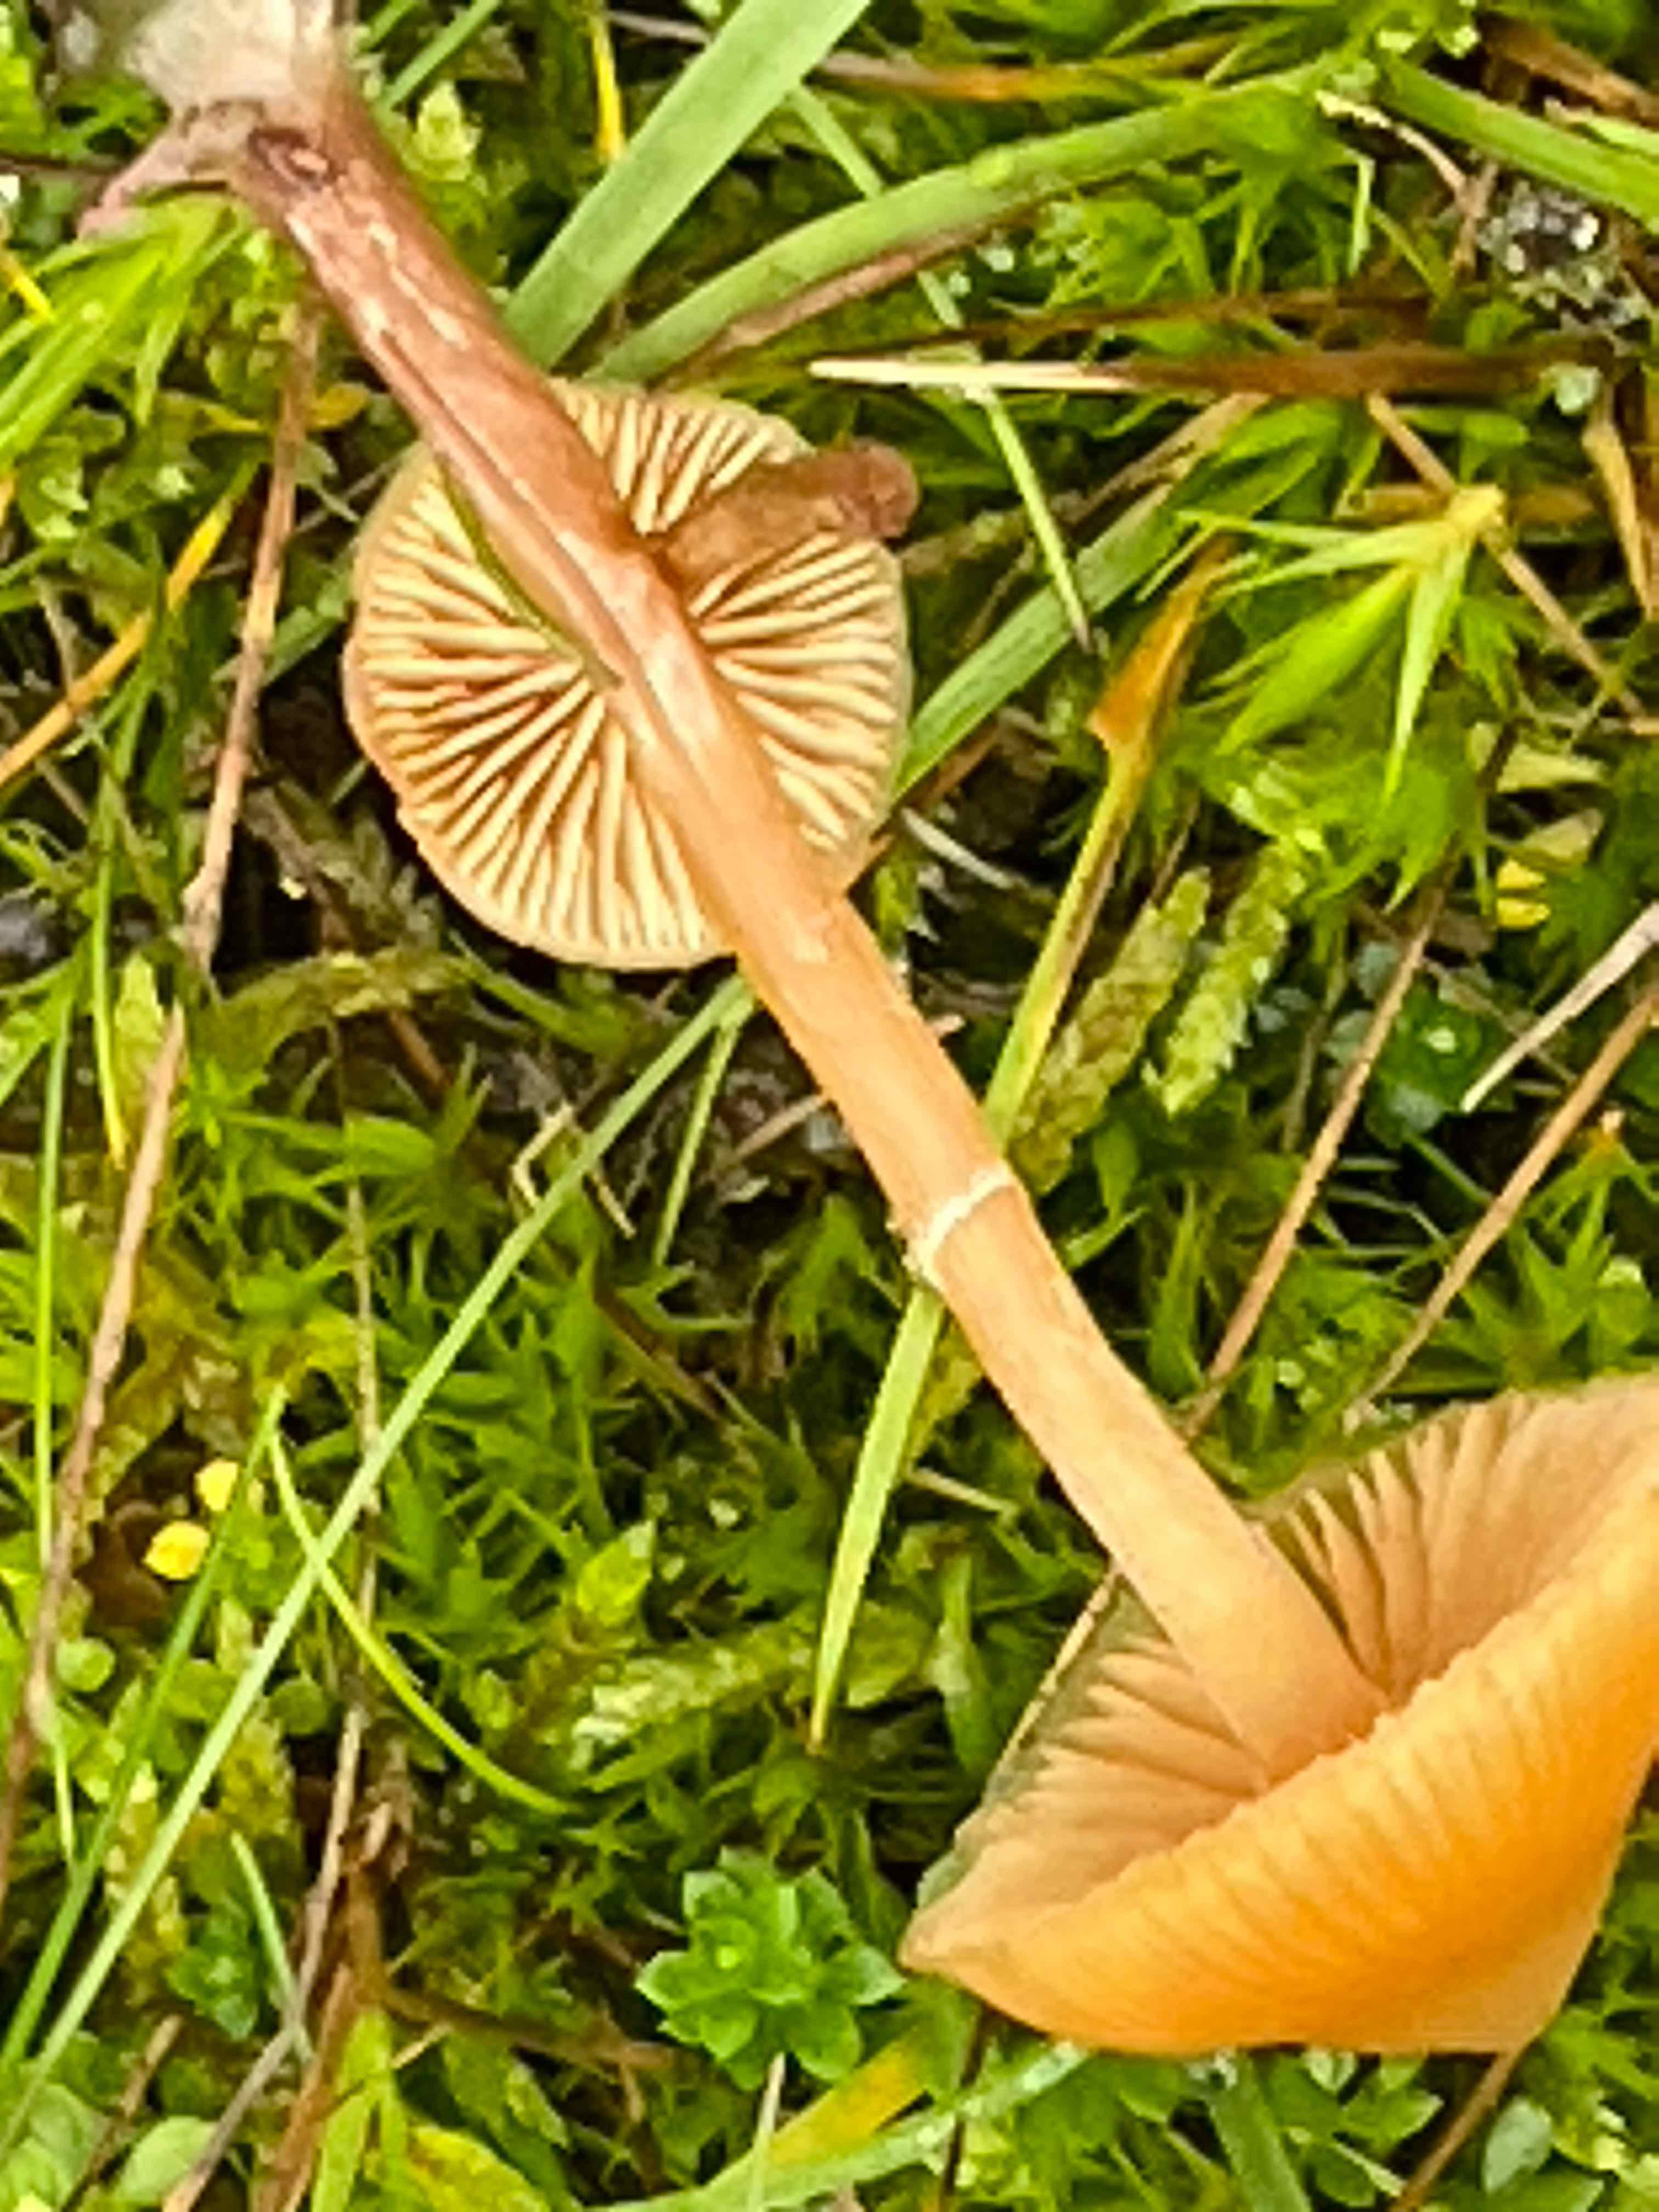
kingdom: Fungi
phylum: Basidiomycota
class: Agaricomycetes
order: Agaricales
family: Hymenogastraceae
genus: Galerina
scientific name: Galerina
